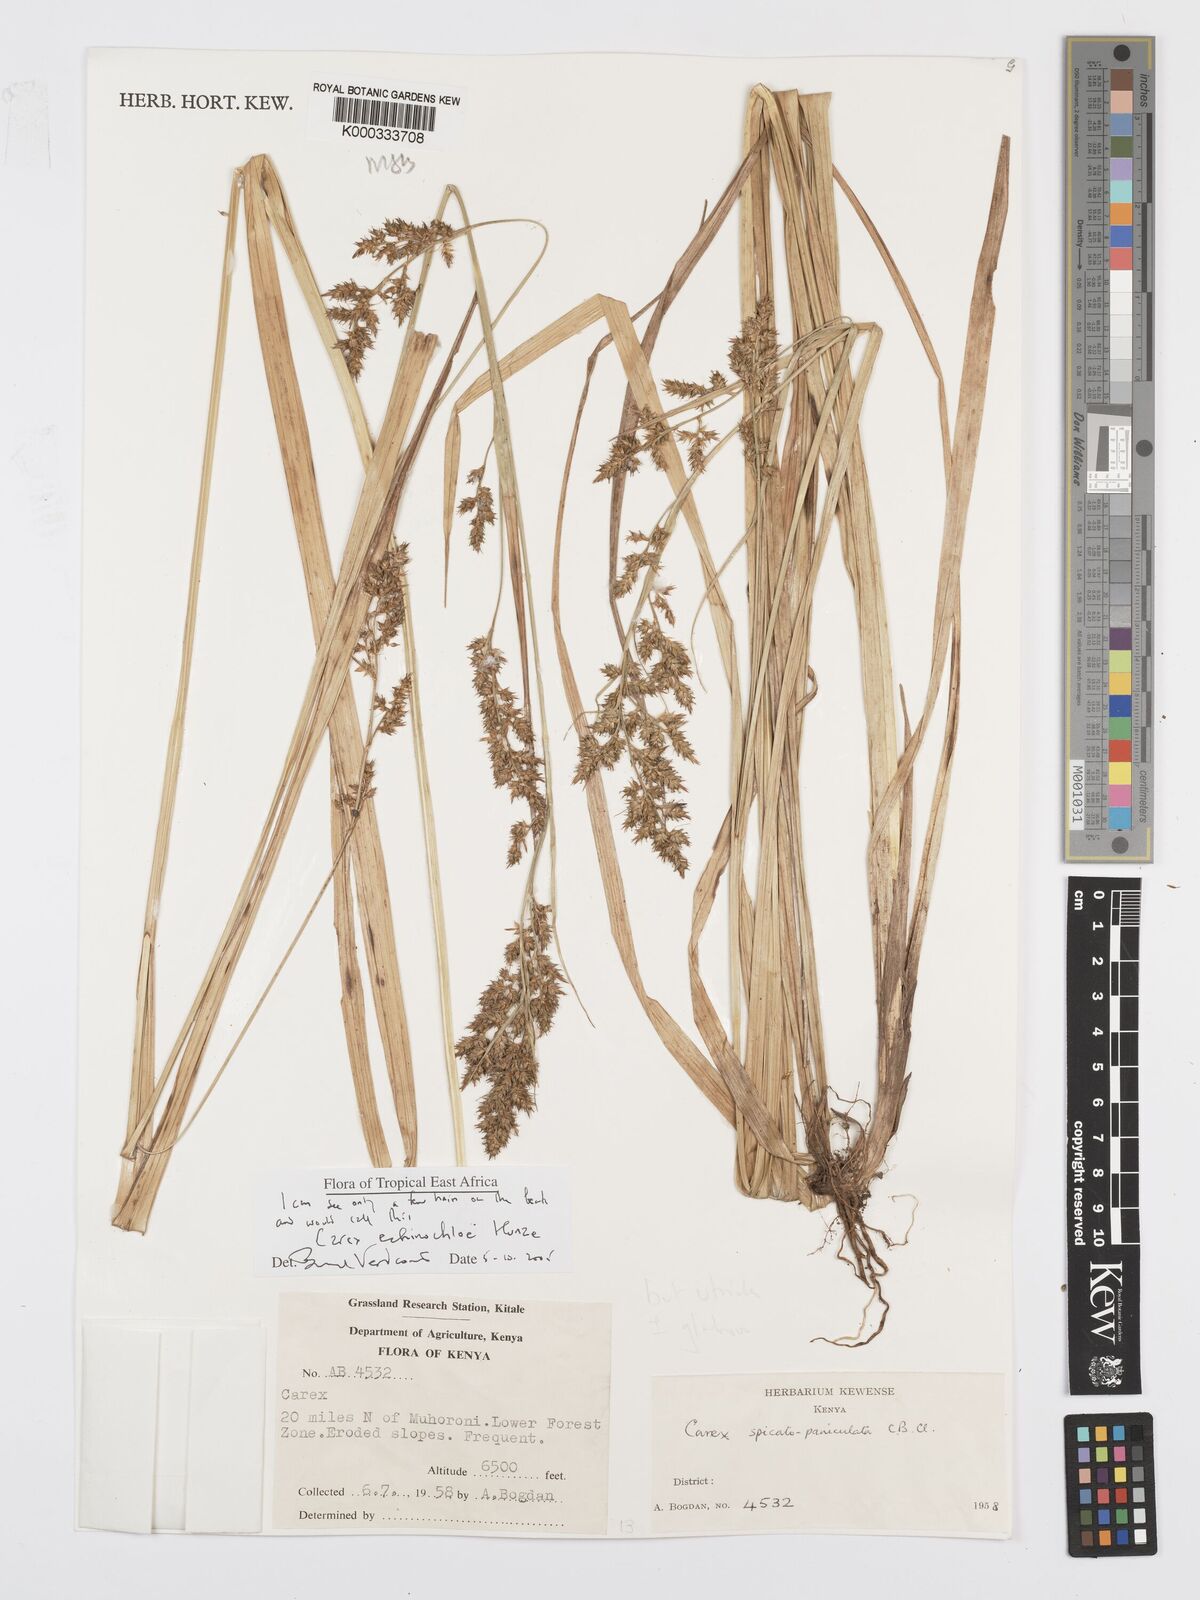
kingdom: Plantae
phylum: Tracheophyta
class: Liliopsida
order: Poales
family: Cyperaceae
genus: Carex
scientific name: Carex echinochloe
